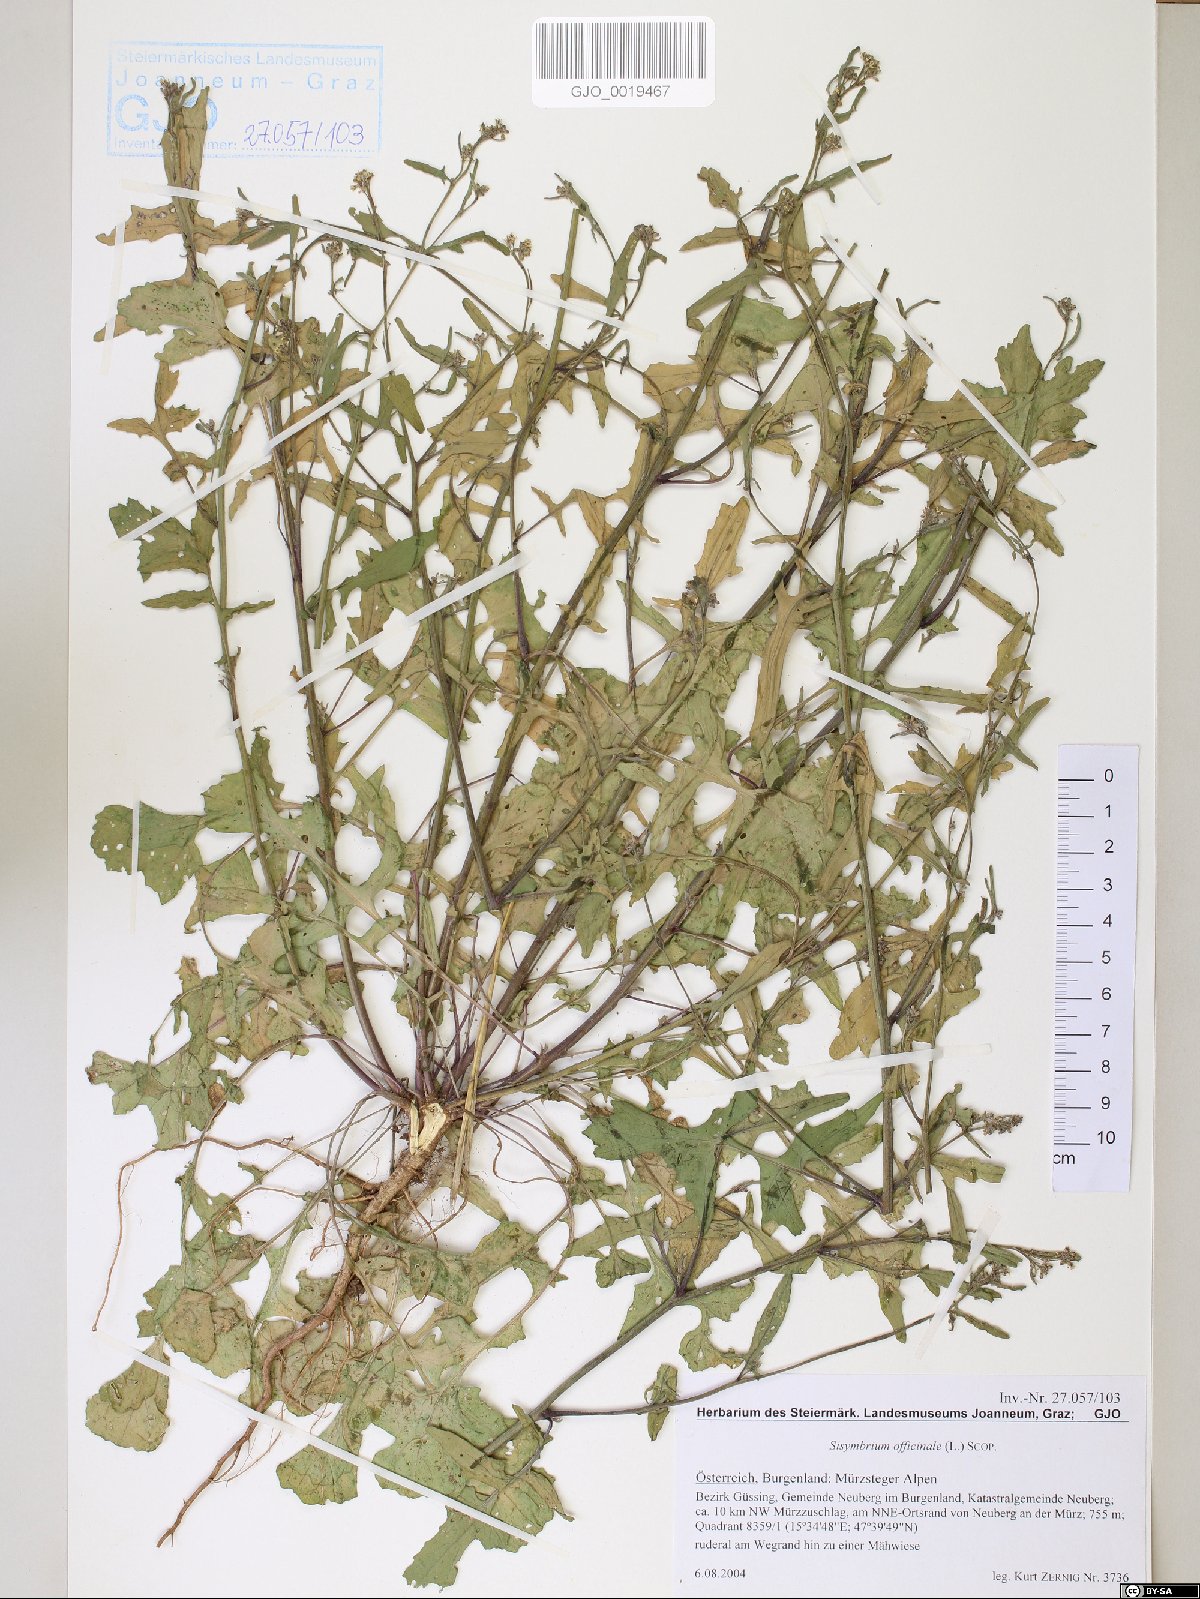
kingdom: Plantae
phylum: Tracheophyta
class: Magnoliopsida
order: Brassicales
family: Brassicaceae
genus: Sisymbrium
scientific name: Sisymbrium officinale
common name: Hedge mustard
